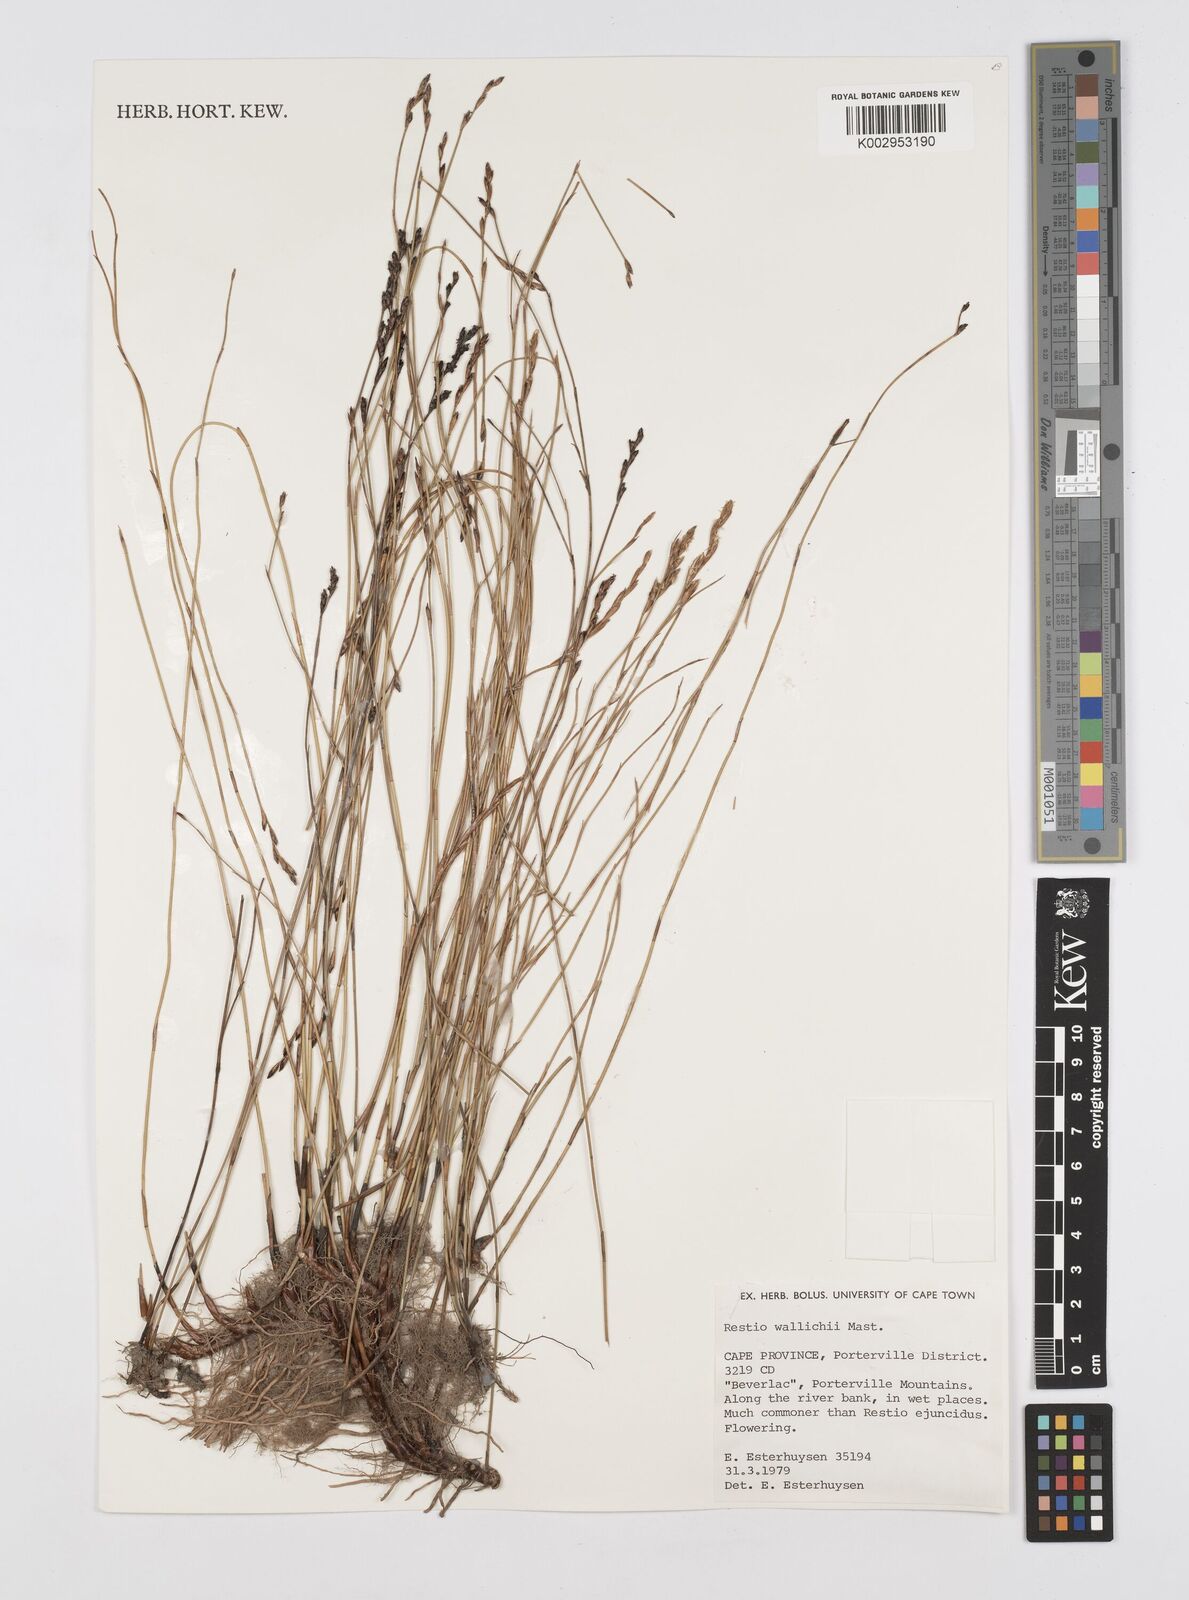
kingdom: Plantae
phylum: Tracheophyta
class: Liliopsida
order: Poales
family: Restionaceae
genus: Restio
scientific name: Restio wallichii
